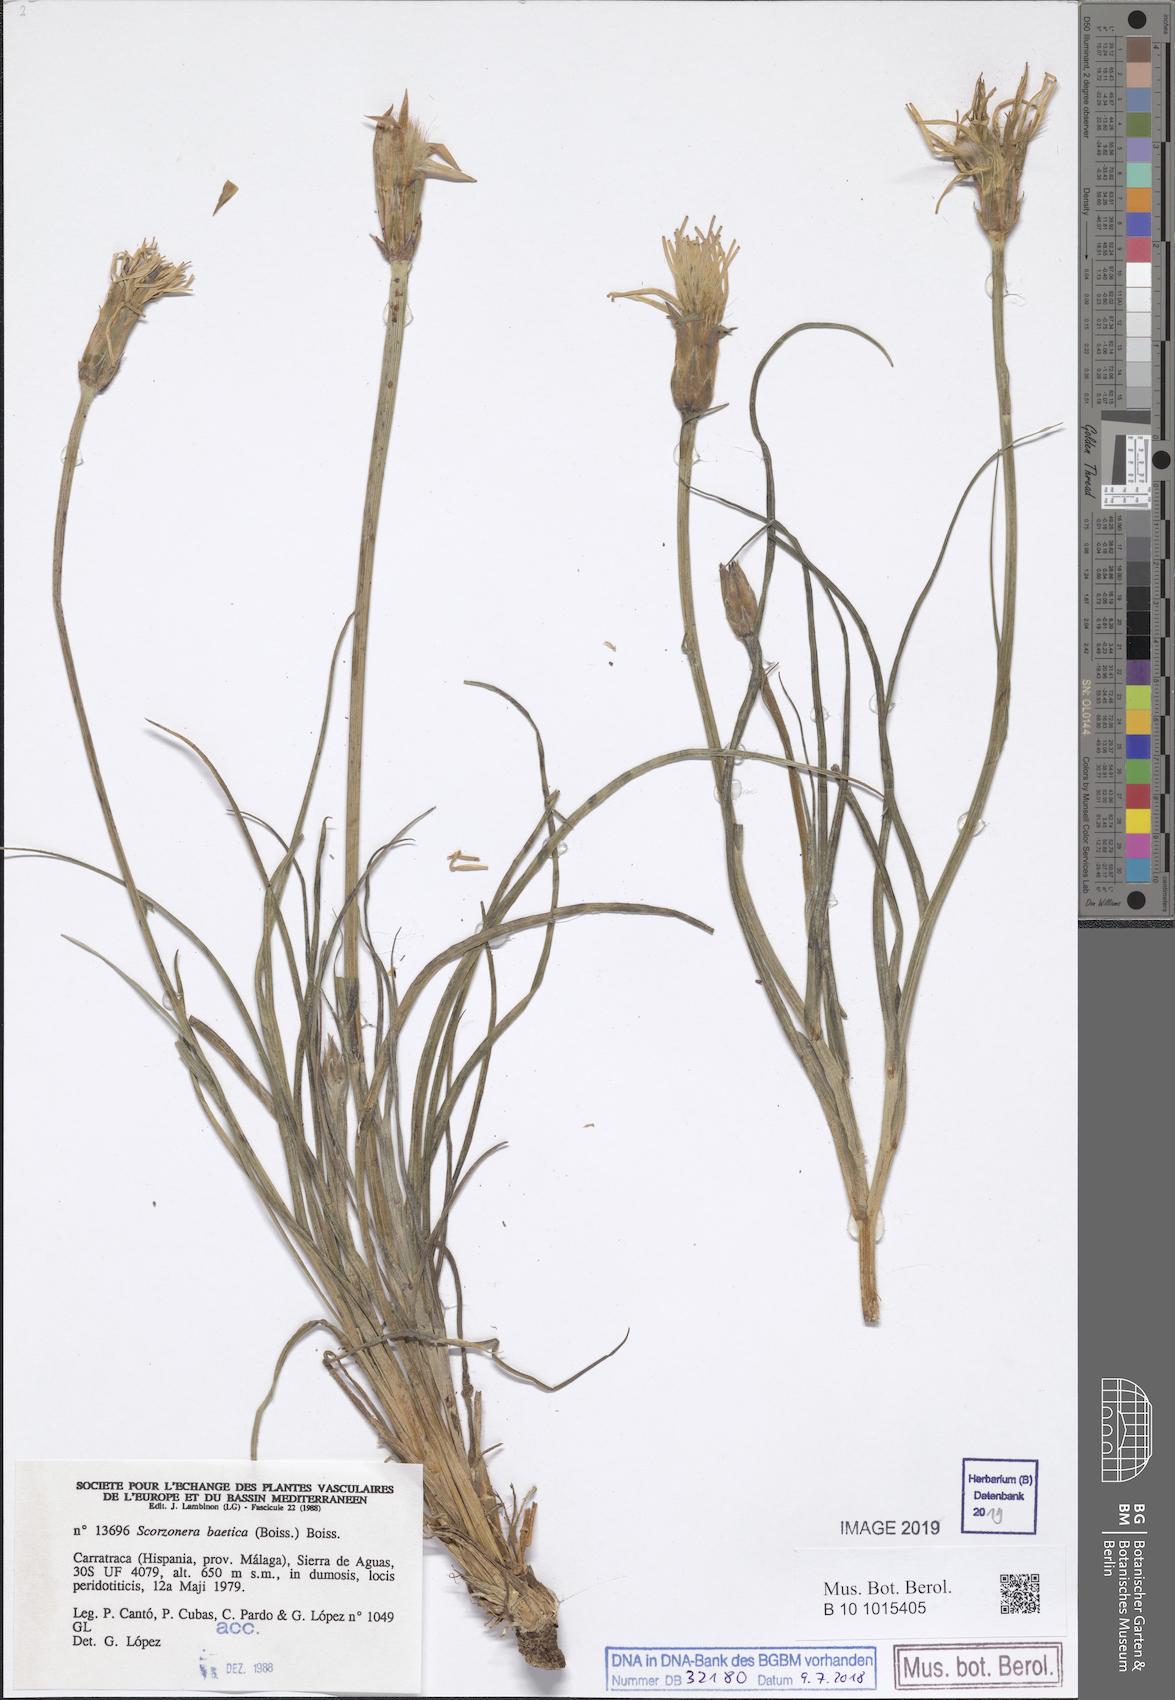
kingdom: Plantae
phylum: Tracheophyta
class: Magnoliopsida
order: Asterales
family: Asteraceae
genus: Pseudopodospermum
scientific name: Pseudopodospermum boeticum
